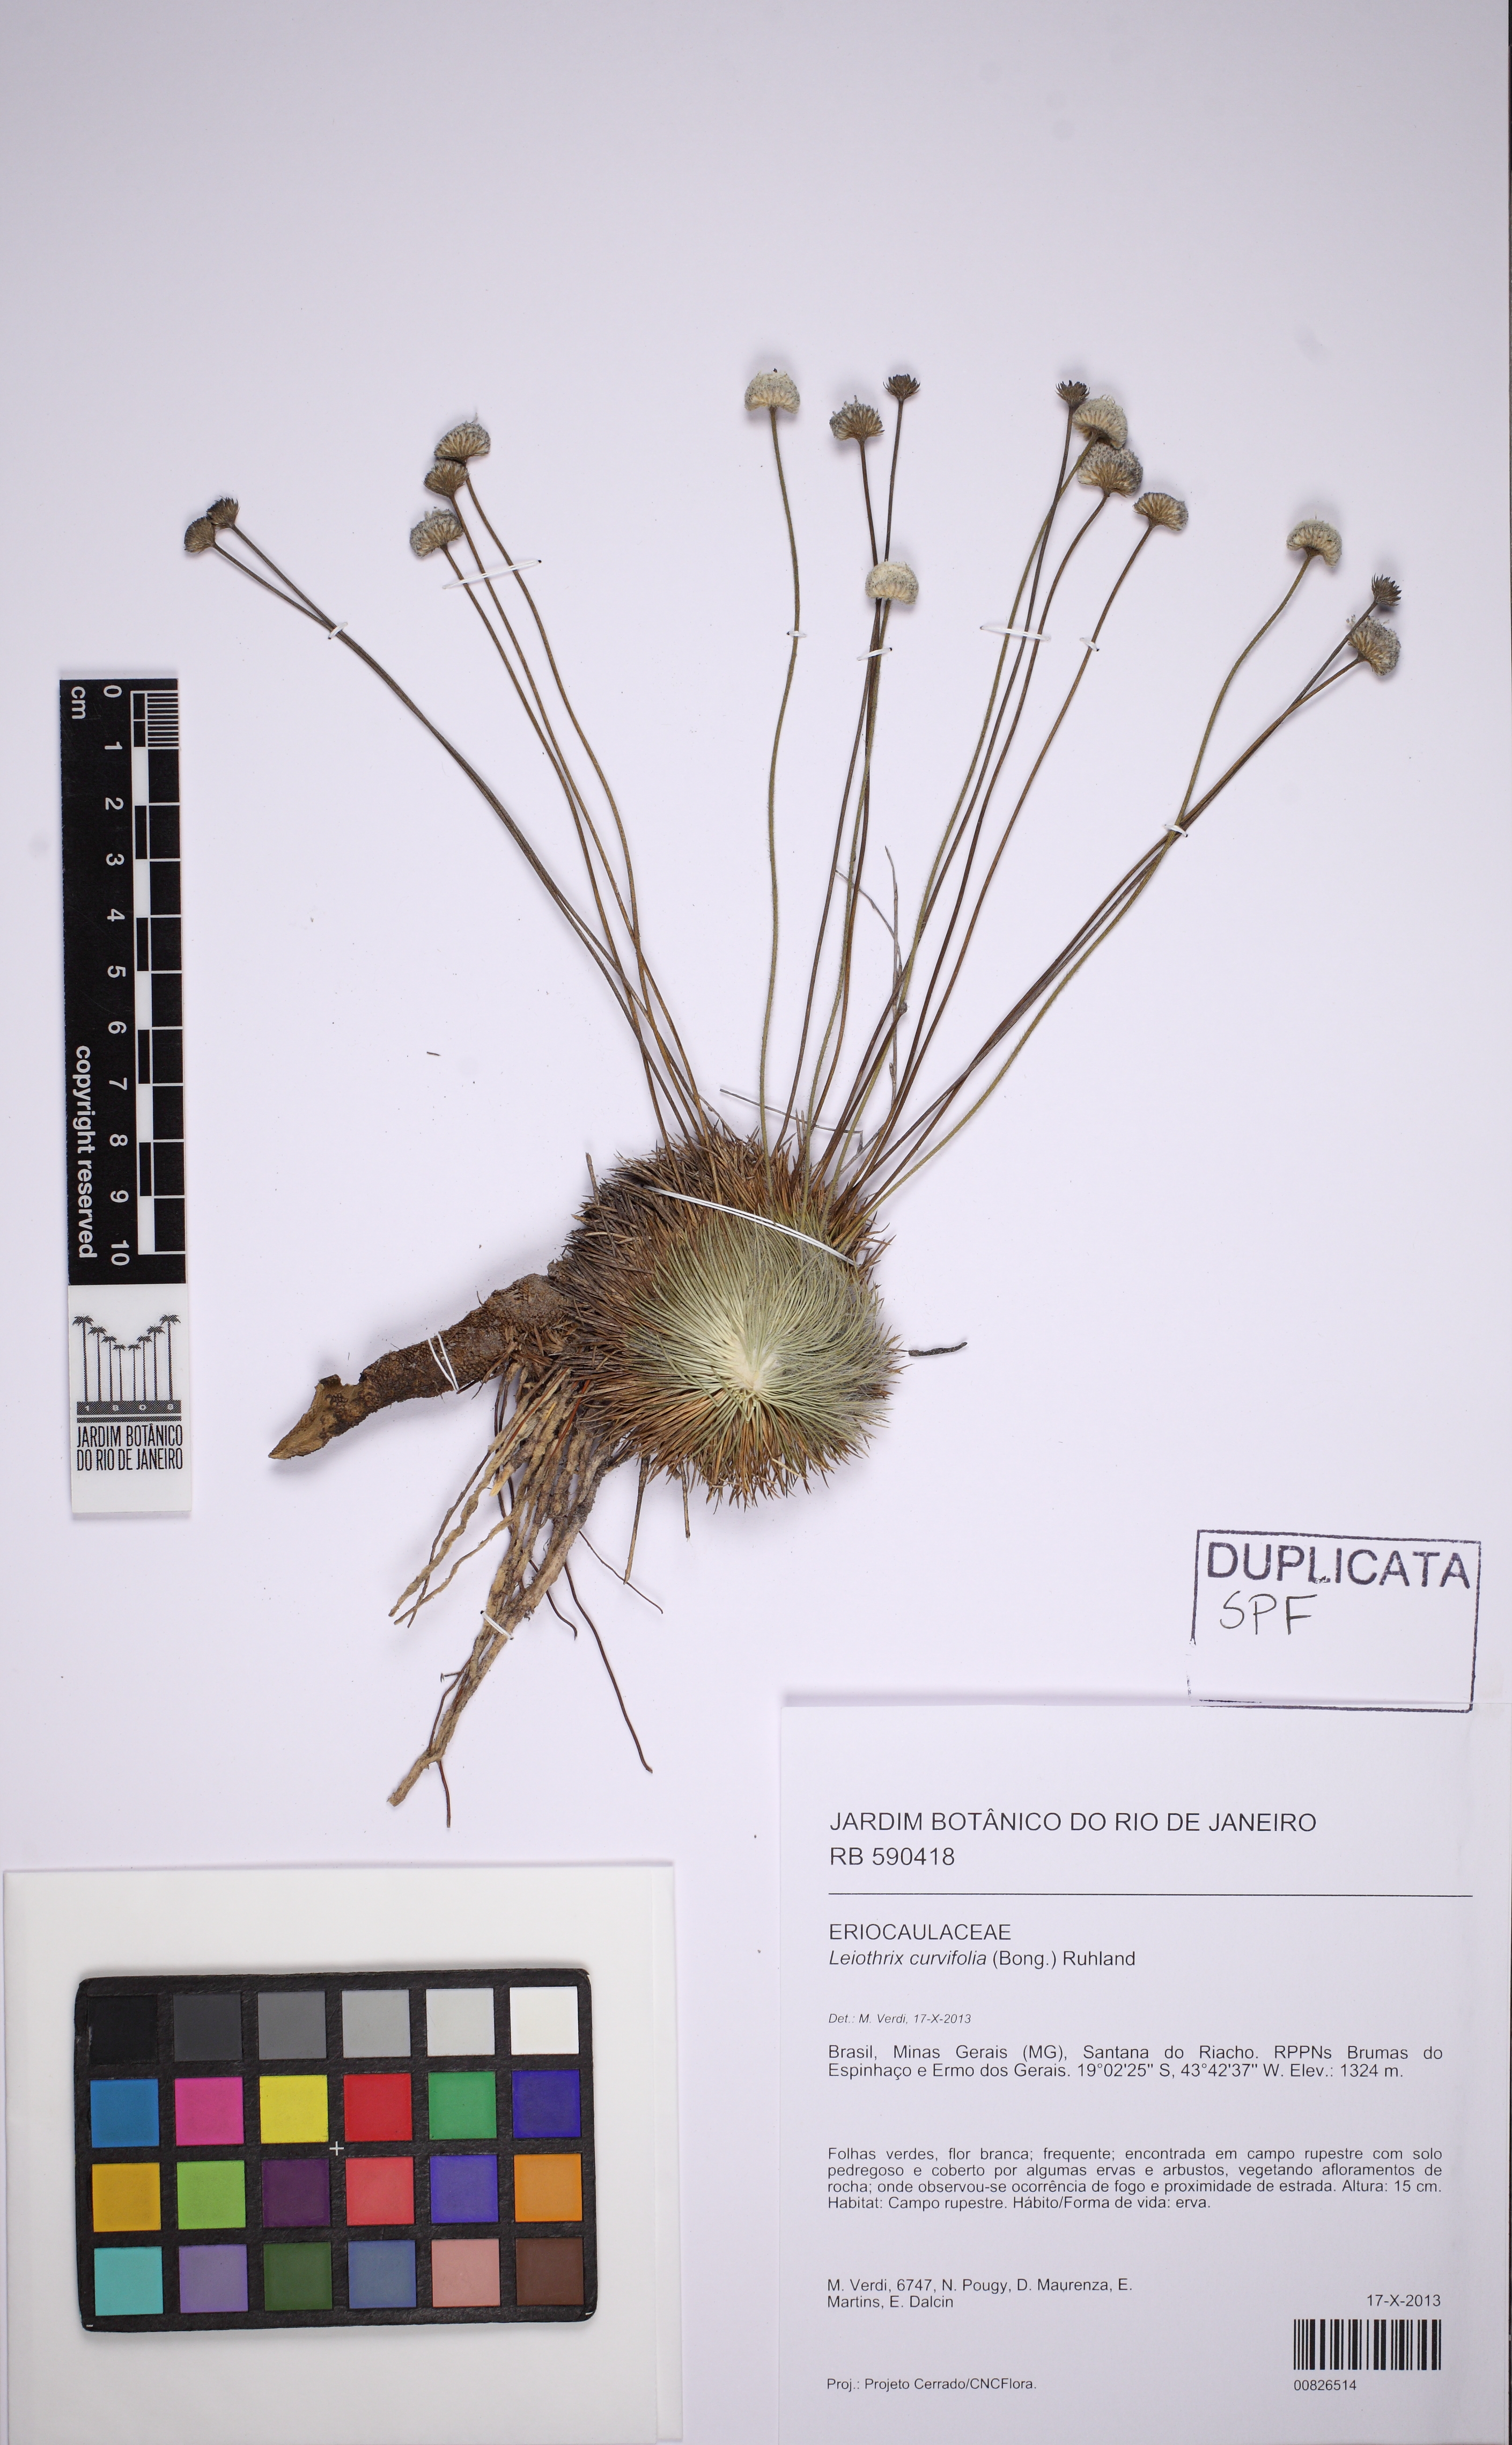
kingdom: Plantae
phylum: Tracheophyta
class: Liliopsida
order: Poales
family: Eriocaulaceae
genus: Leiothrix
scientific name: Leiothrix curvifolia
